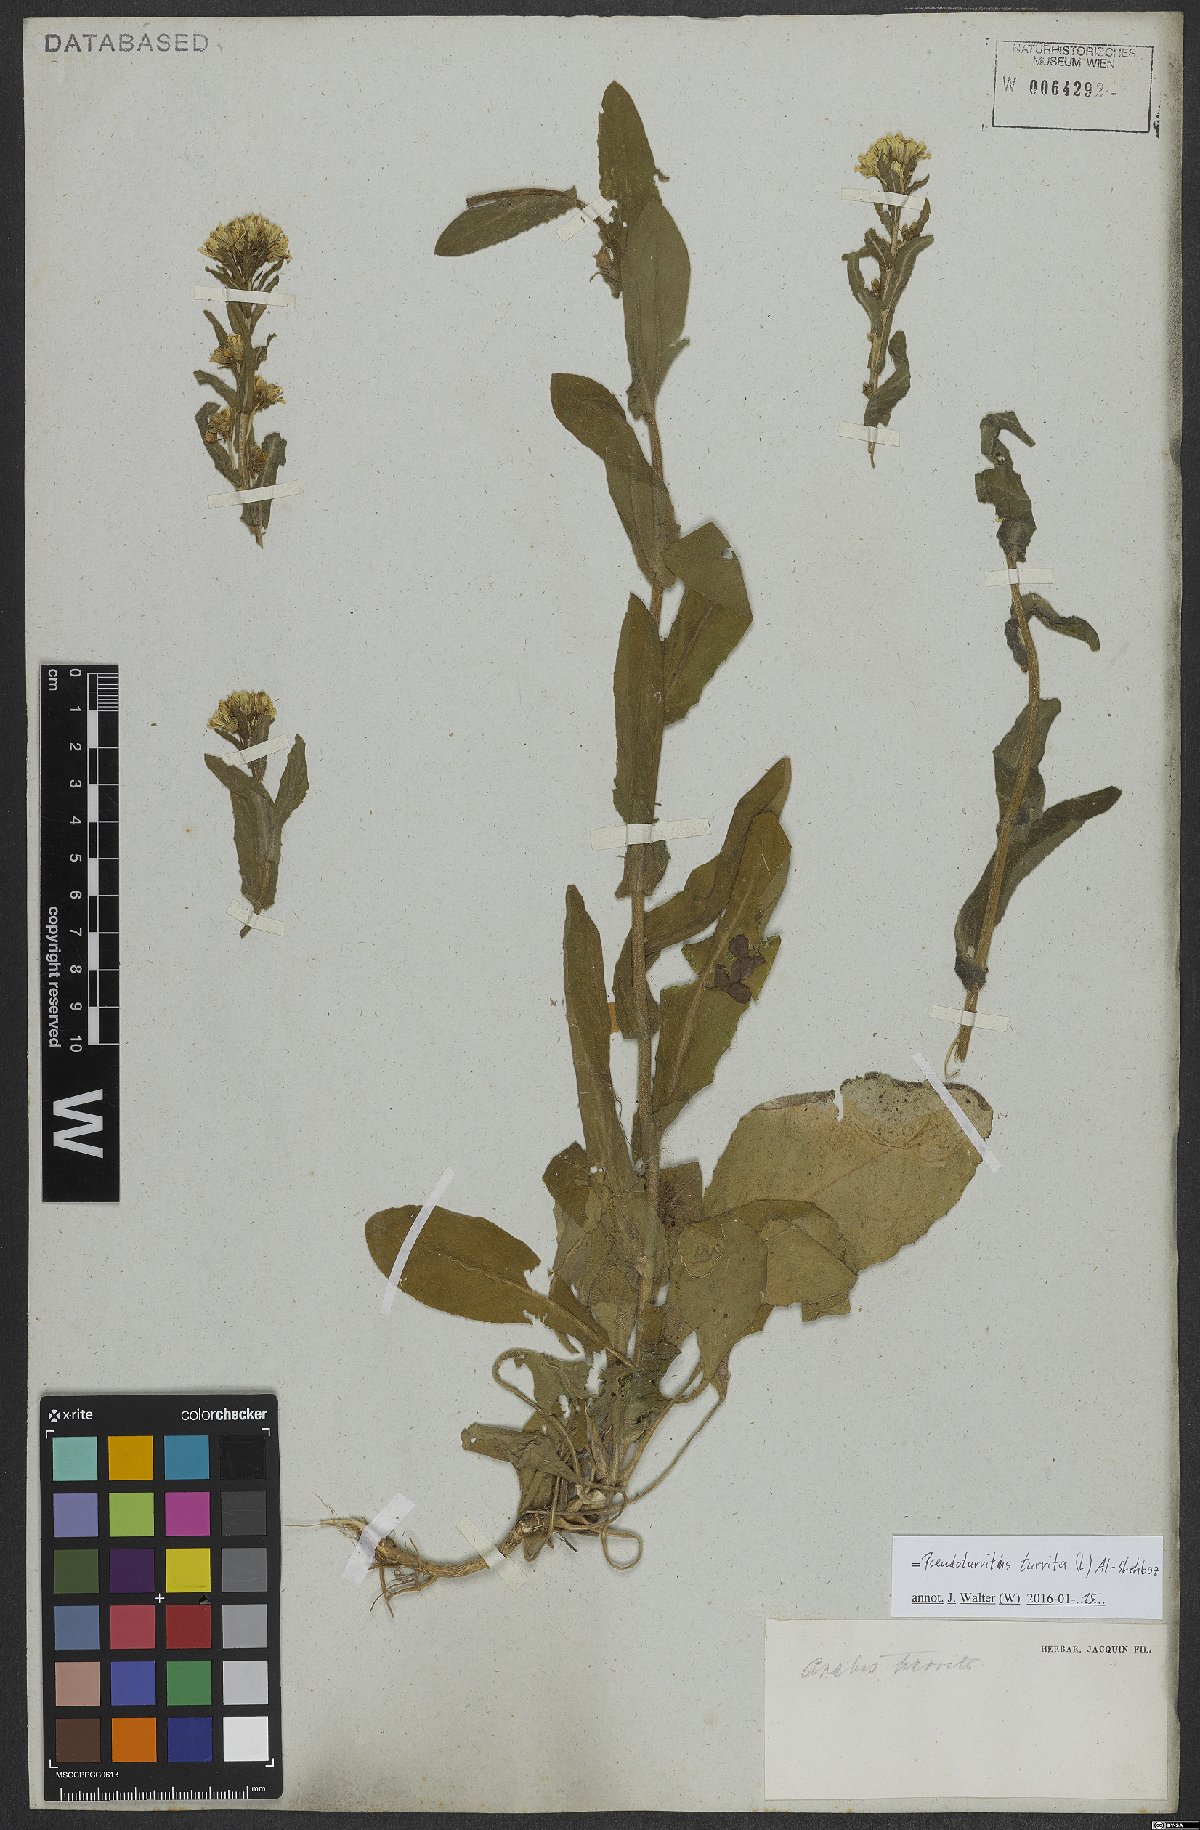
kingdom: Plantae
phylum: Tracheophyta
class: Magnoliopsida
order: Brassicales
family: Brassicaceae
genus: Pseudoturritis
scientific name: Pseudoturritis turrita
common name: Tower cress
